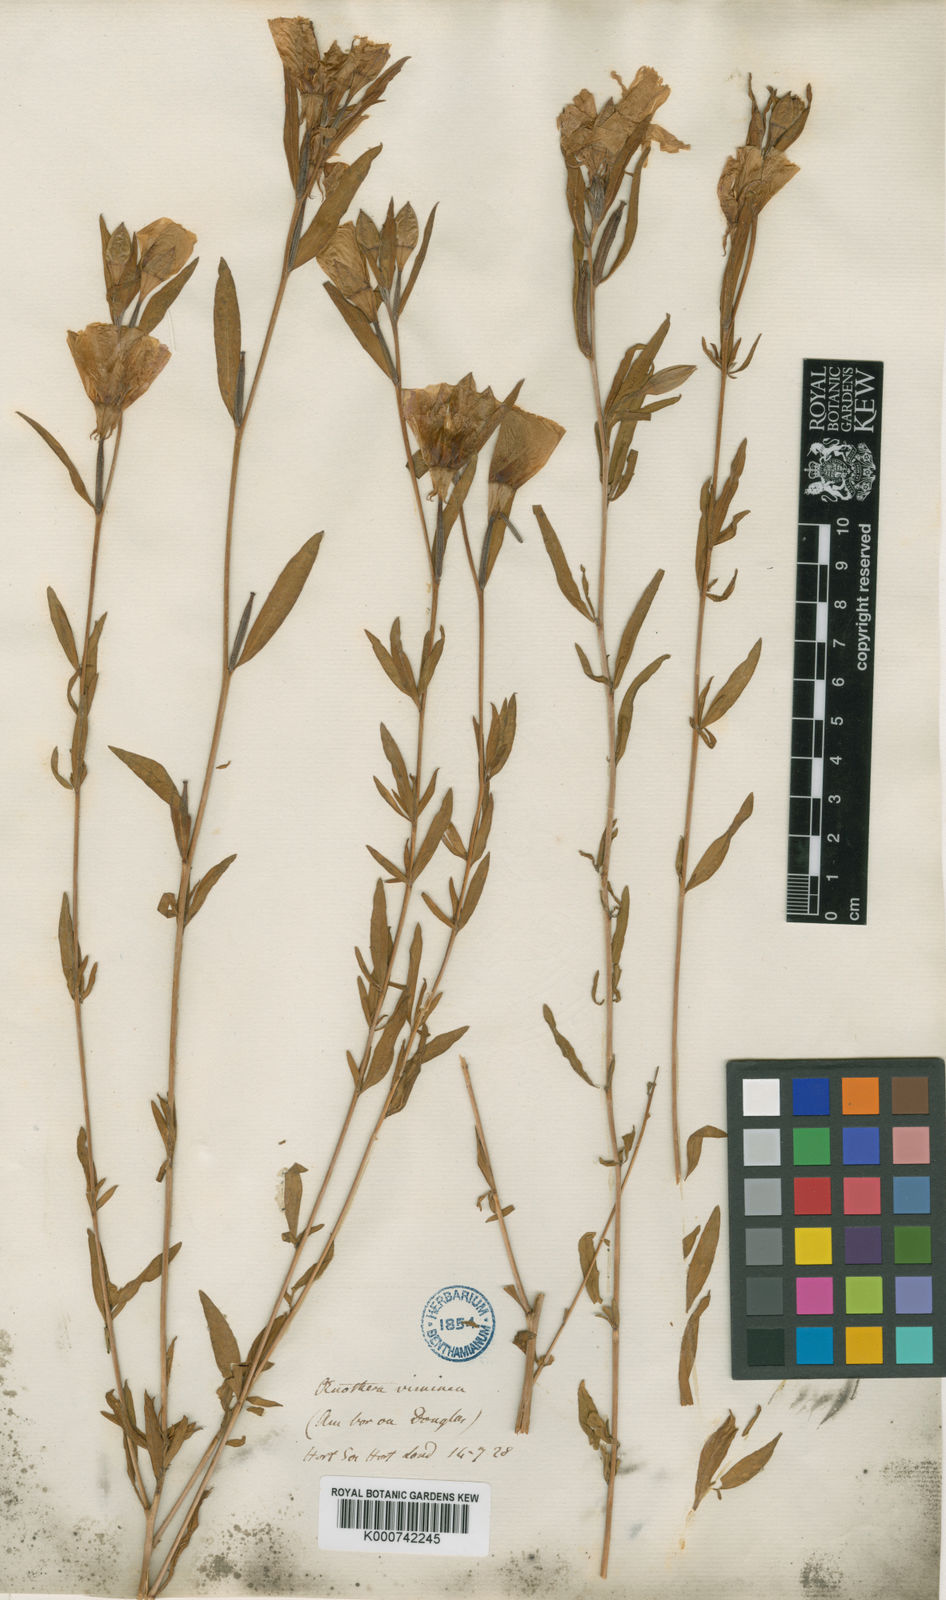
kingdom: Plantae
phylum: Tracheophyta
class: Magnoliopsida
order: Myrtales
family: Onagraceae
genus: Clarkia
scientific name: Clarkia purpurea
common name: Purple clarkia
